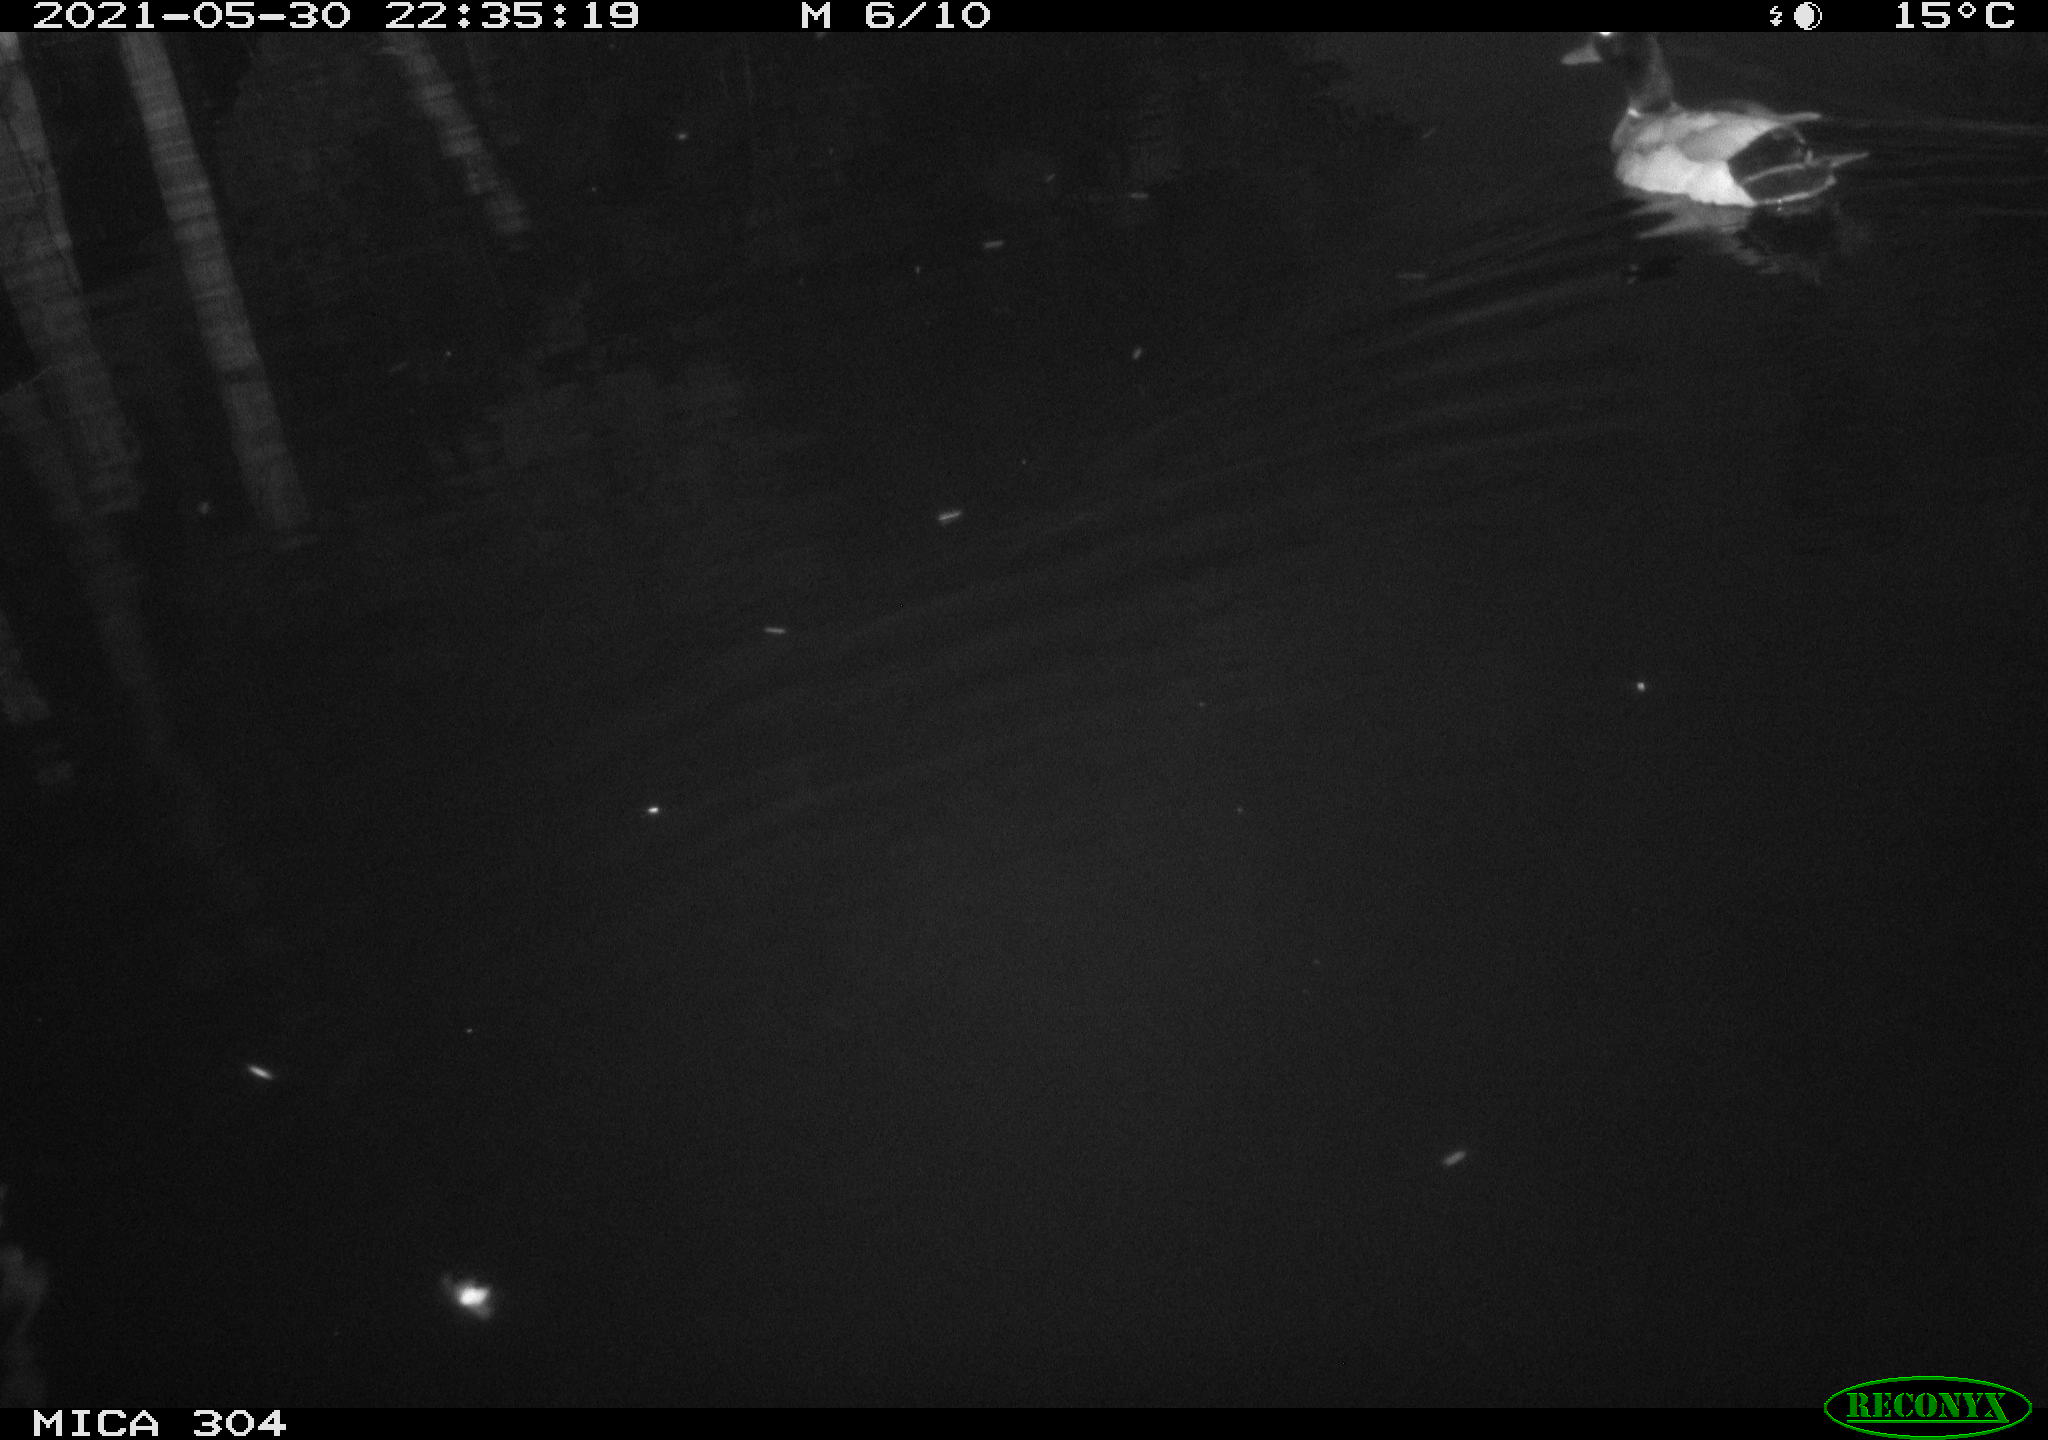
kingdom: Animalia
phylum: Chordata
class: Aves
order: Anseriformes
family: Anatidae
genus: Anas
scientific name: Anas platyrhynchos
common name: Mallard
